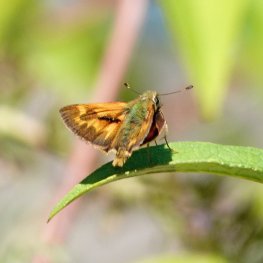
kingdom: Animalia
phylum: Arthropoda
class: Insecta
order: Lepidoptera
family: Hesperiidae
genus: Ochlodes
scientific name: Ochlodes sylvanoides
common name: Woodland Skipper
